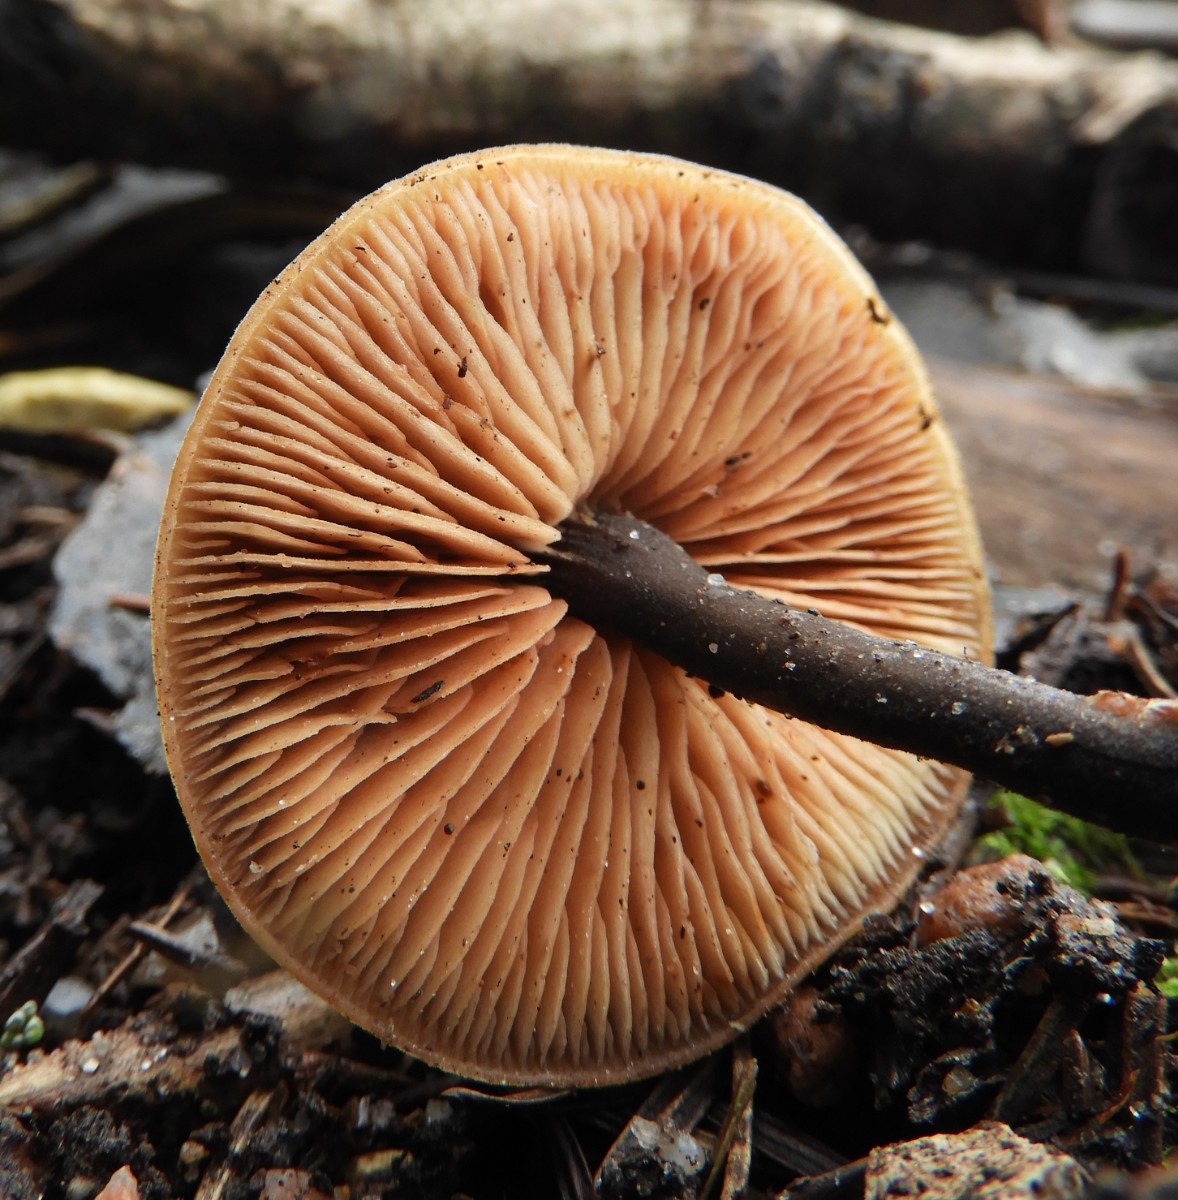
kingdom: Fungi
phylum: Basidiomycota
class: Agaricomycetes
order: Agaricales
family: Macrocystidiaceae
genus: Macrocystidia
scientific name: Macrocystidia cucumis
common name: agurkehat
